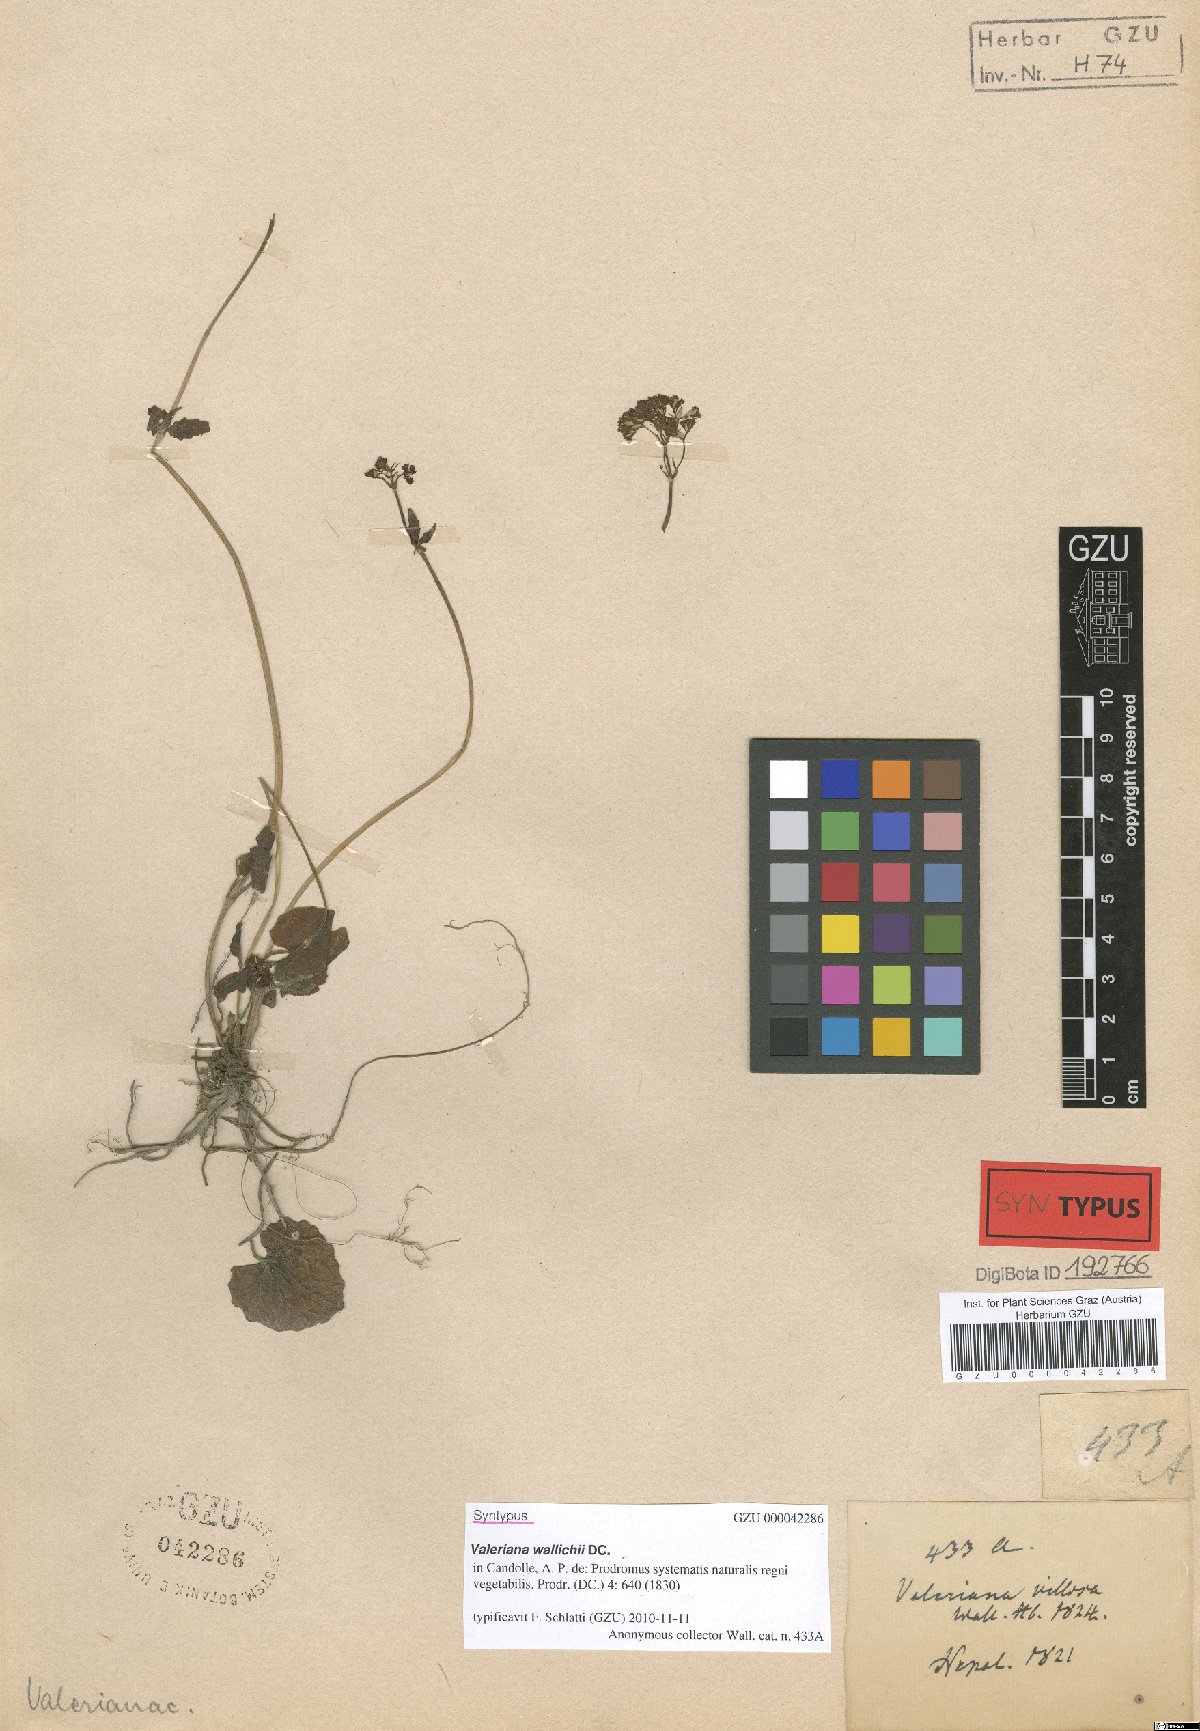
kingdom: Plantae
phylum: Tracheophyta
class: Magnoliopsida
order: Dipsacales
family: Caprifoliaceae
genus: Valeriana
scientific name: Valeriana jatamansi
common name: Indian valerian
